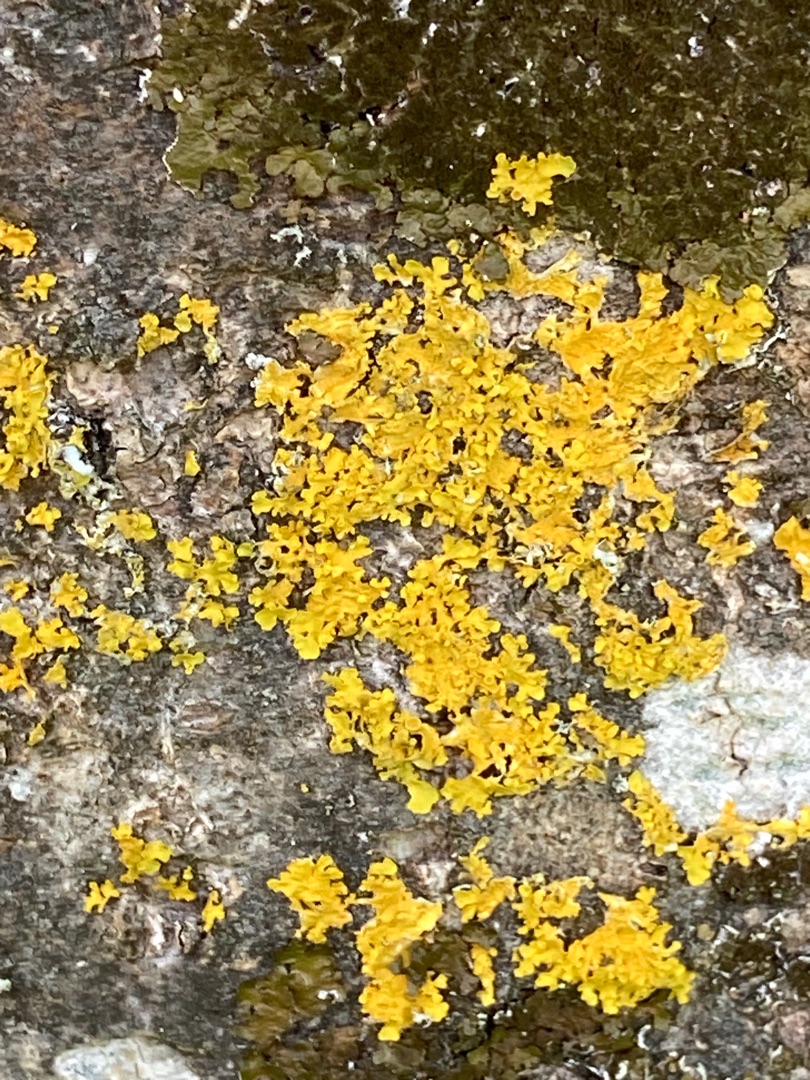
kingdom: Fungi
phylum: Ascomycota
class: Lecanoromycetes
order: Teloschistales
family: Teloschistaceae
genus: Xanthoria
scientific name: Xanthoria parietina
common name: Almindelig væggelav
